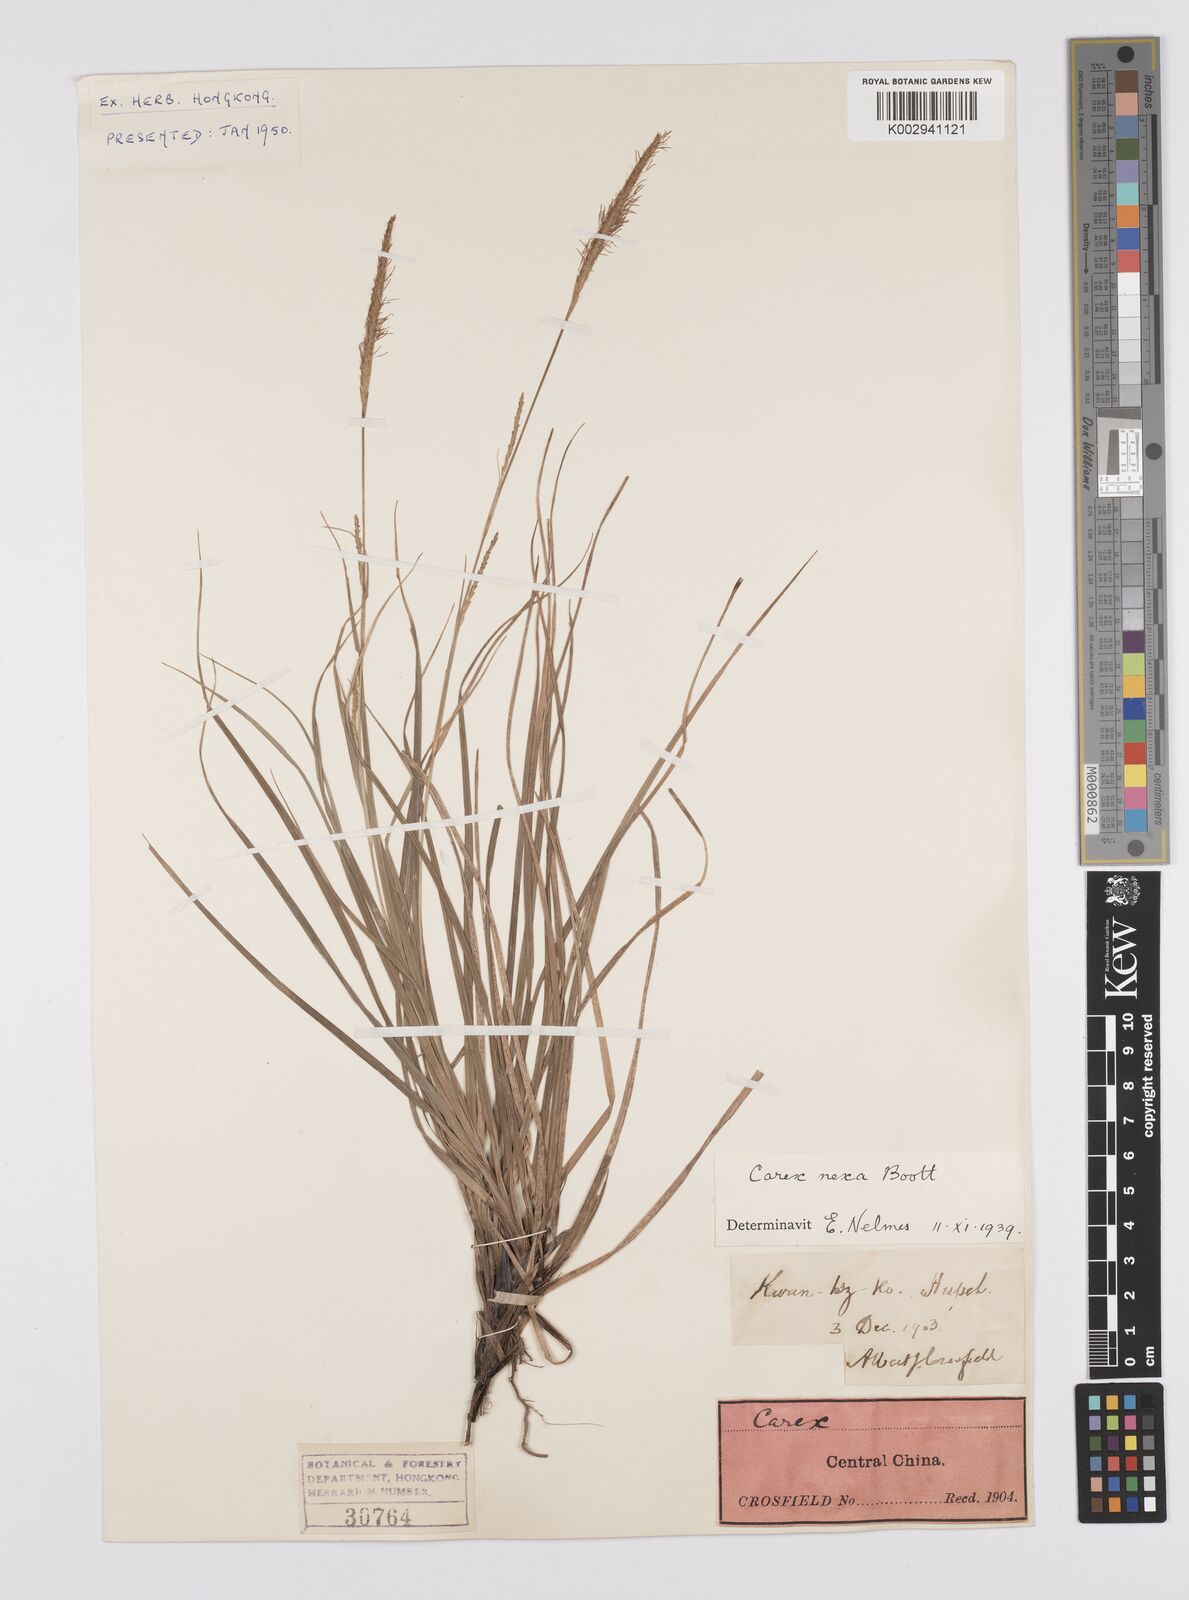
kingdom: Plantae
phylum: Tracheophyta
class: Liliopsida
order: Poales
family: Cyperaceae
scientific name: Cyperaceae
